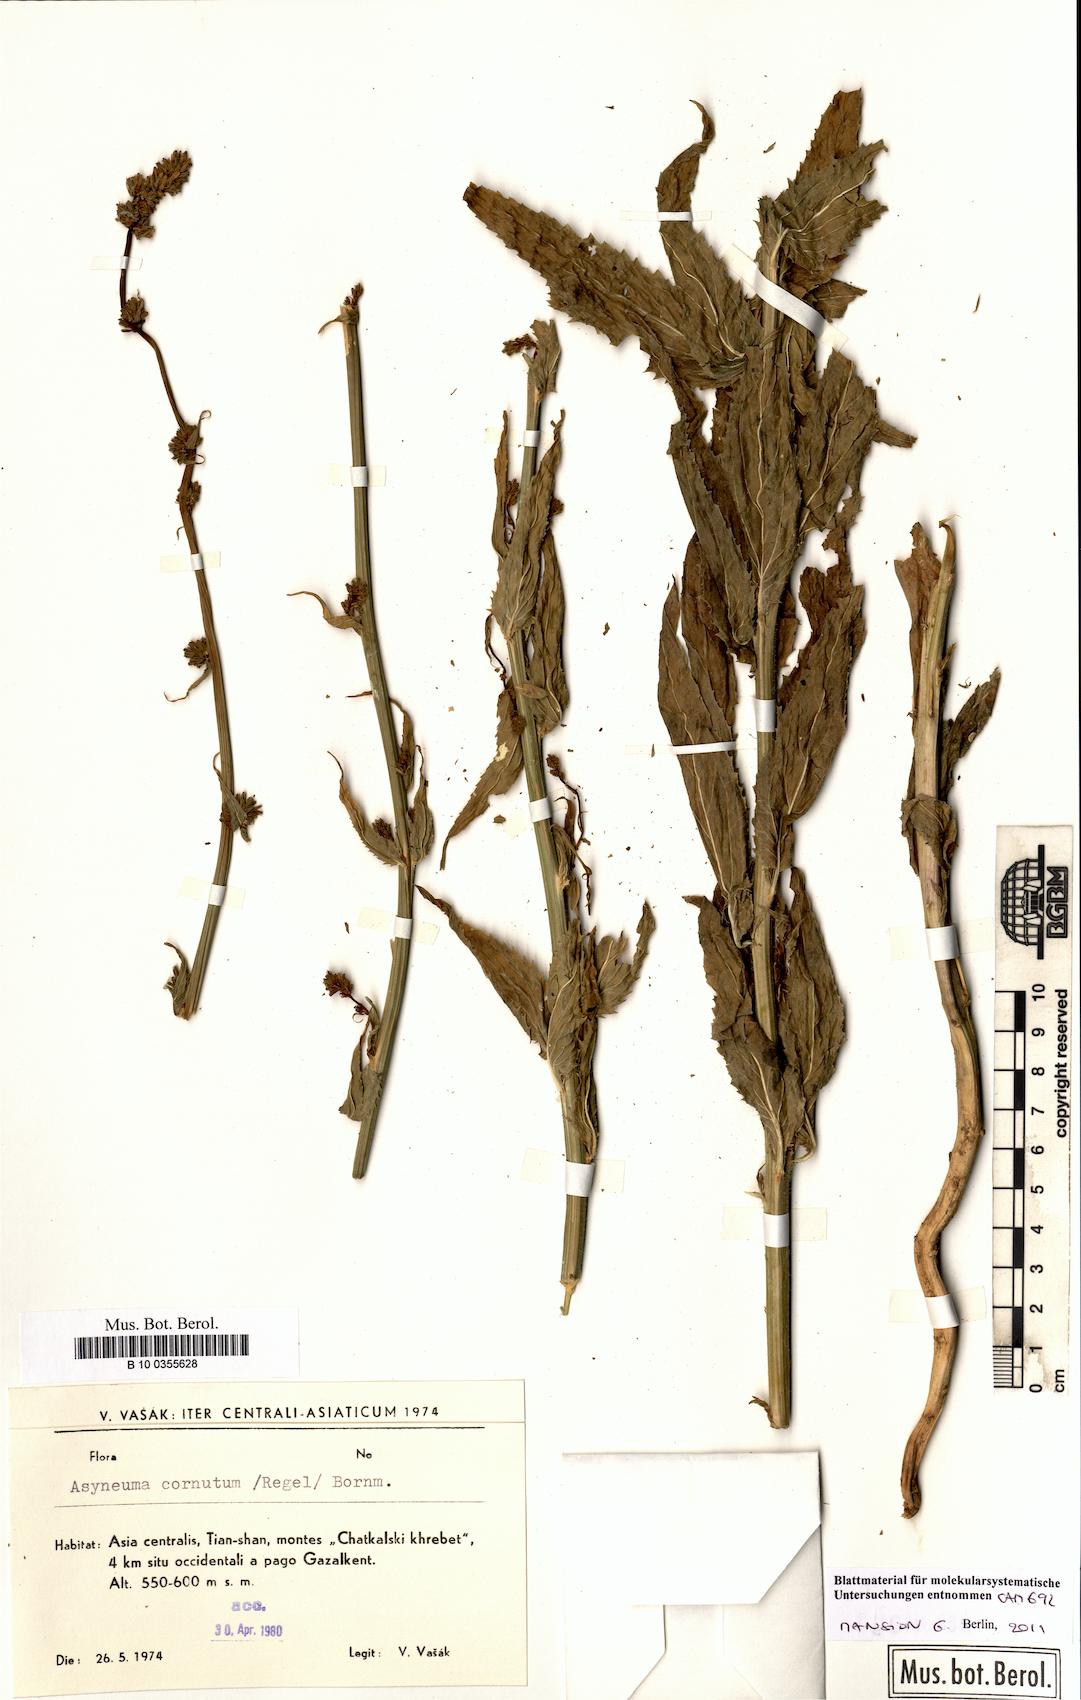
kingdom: Plantae
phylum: Tracheophyta
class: Magnoliopsida
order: Asterales
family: Campanulaceae
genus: Asyneuma
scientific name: Asyneuma
